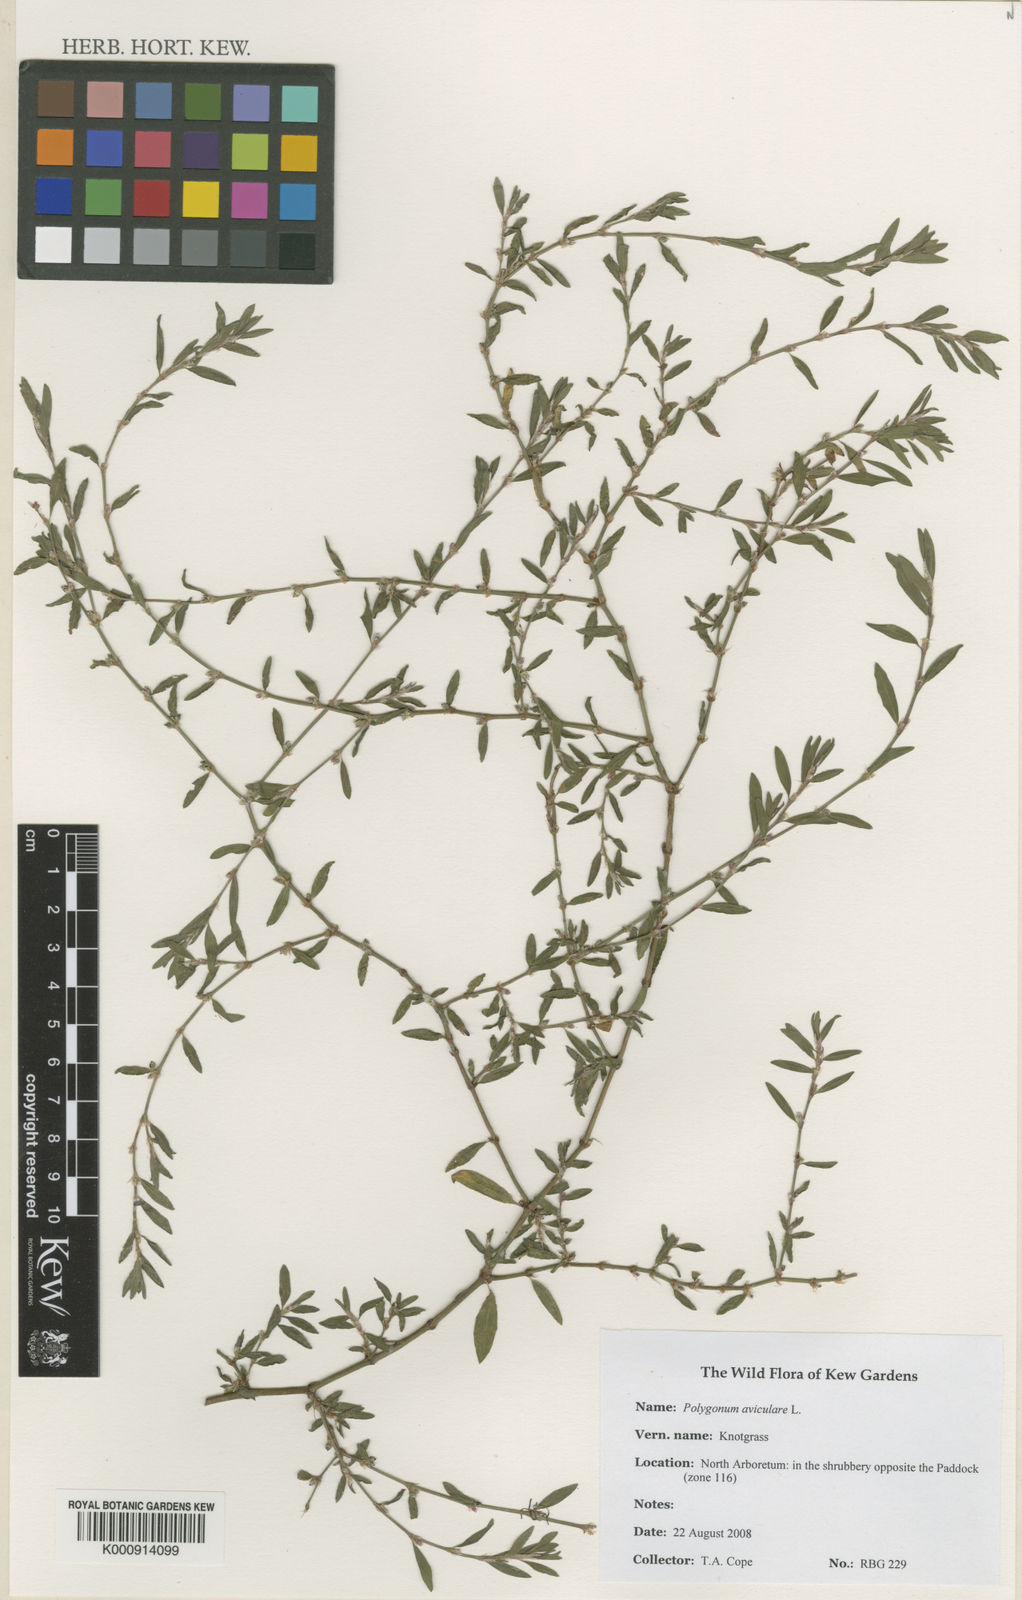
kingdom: Plantae
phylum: Tracheophyta
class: Magnoliopsida
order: Caryophyllales
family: Polygonaceae
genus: Polygonum
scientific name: Polygonum aviculare
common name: Prostrate knotweed
